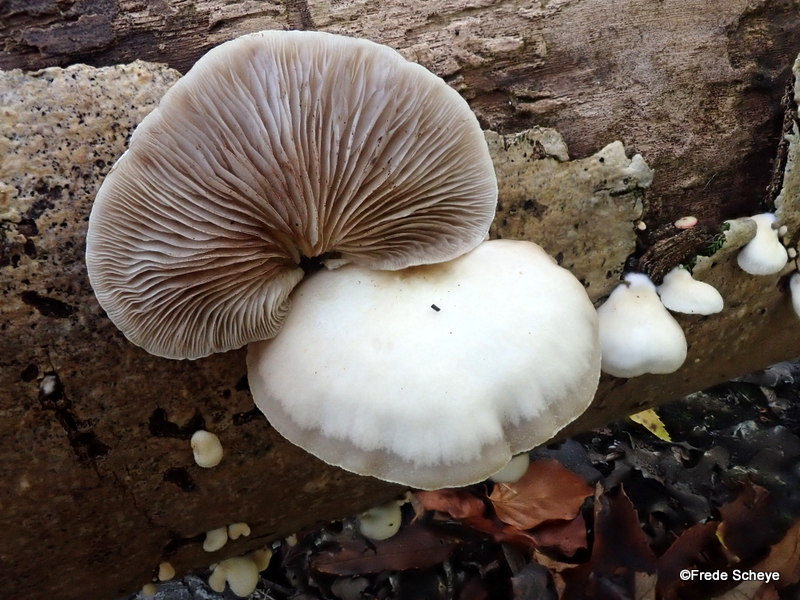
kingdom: Fungi
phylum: Basidiomycota
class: Agaricomycetes
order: Agaricales
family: Crepidotaceae
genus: Crepidotus
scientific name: Crepidotus mollis
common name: blød muslingesvamp
